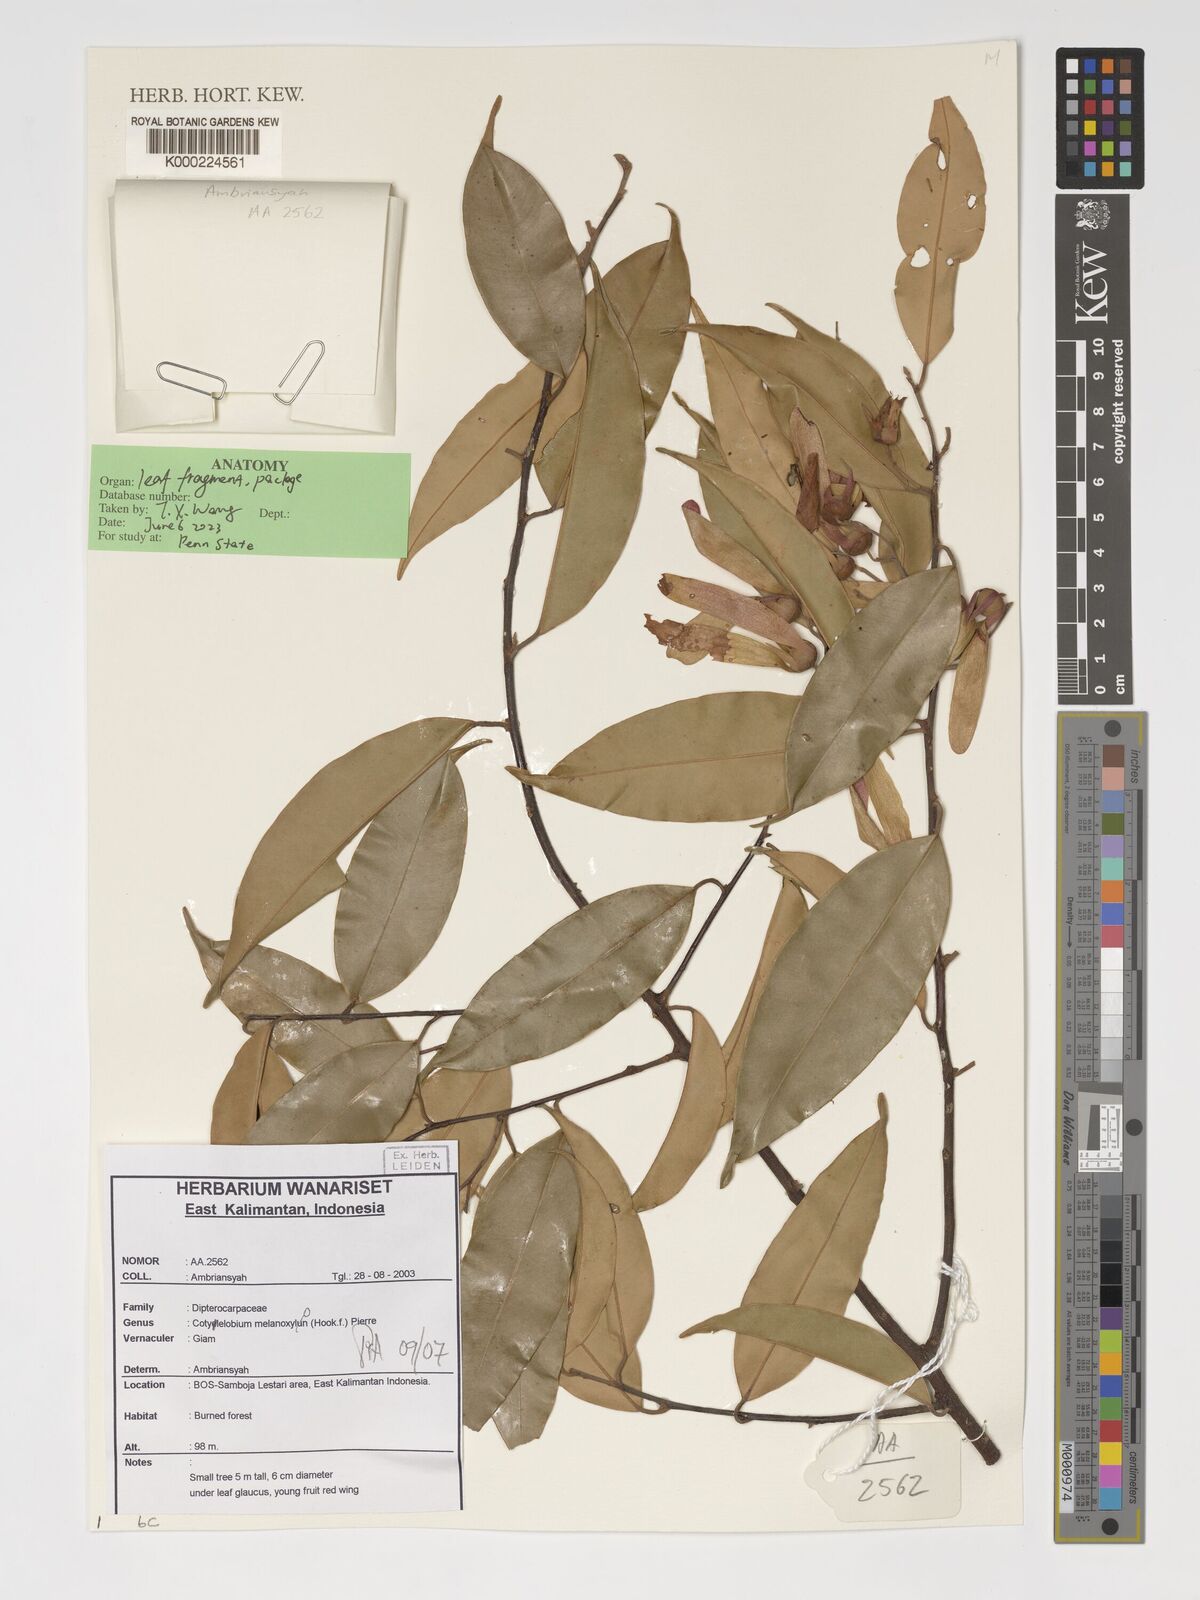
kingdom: Plantae
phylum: Tracheophyta
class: Magnoliopsida
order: Malvales
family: Dipterocarpaceae
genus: Cotylelobium
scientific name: Cotylelobium melanoxylon
